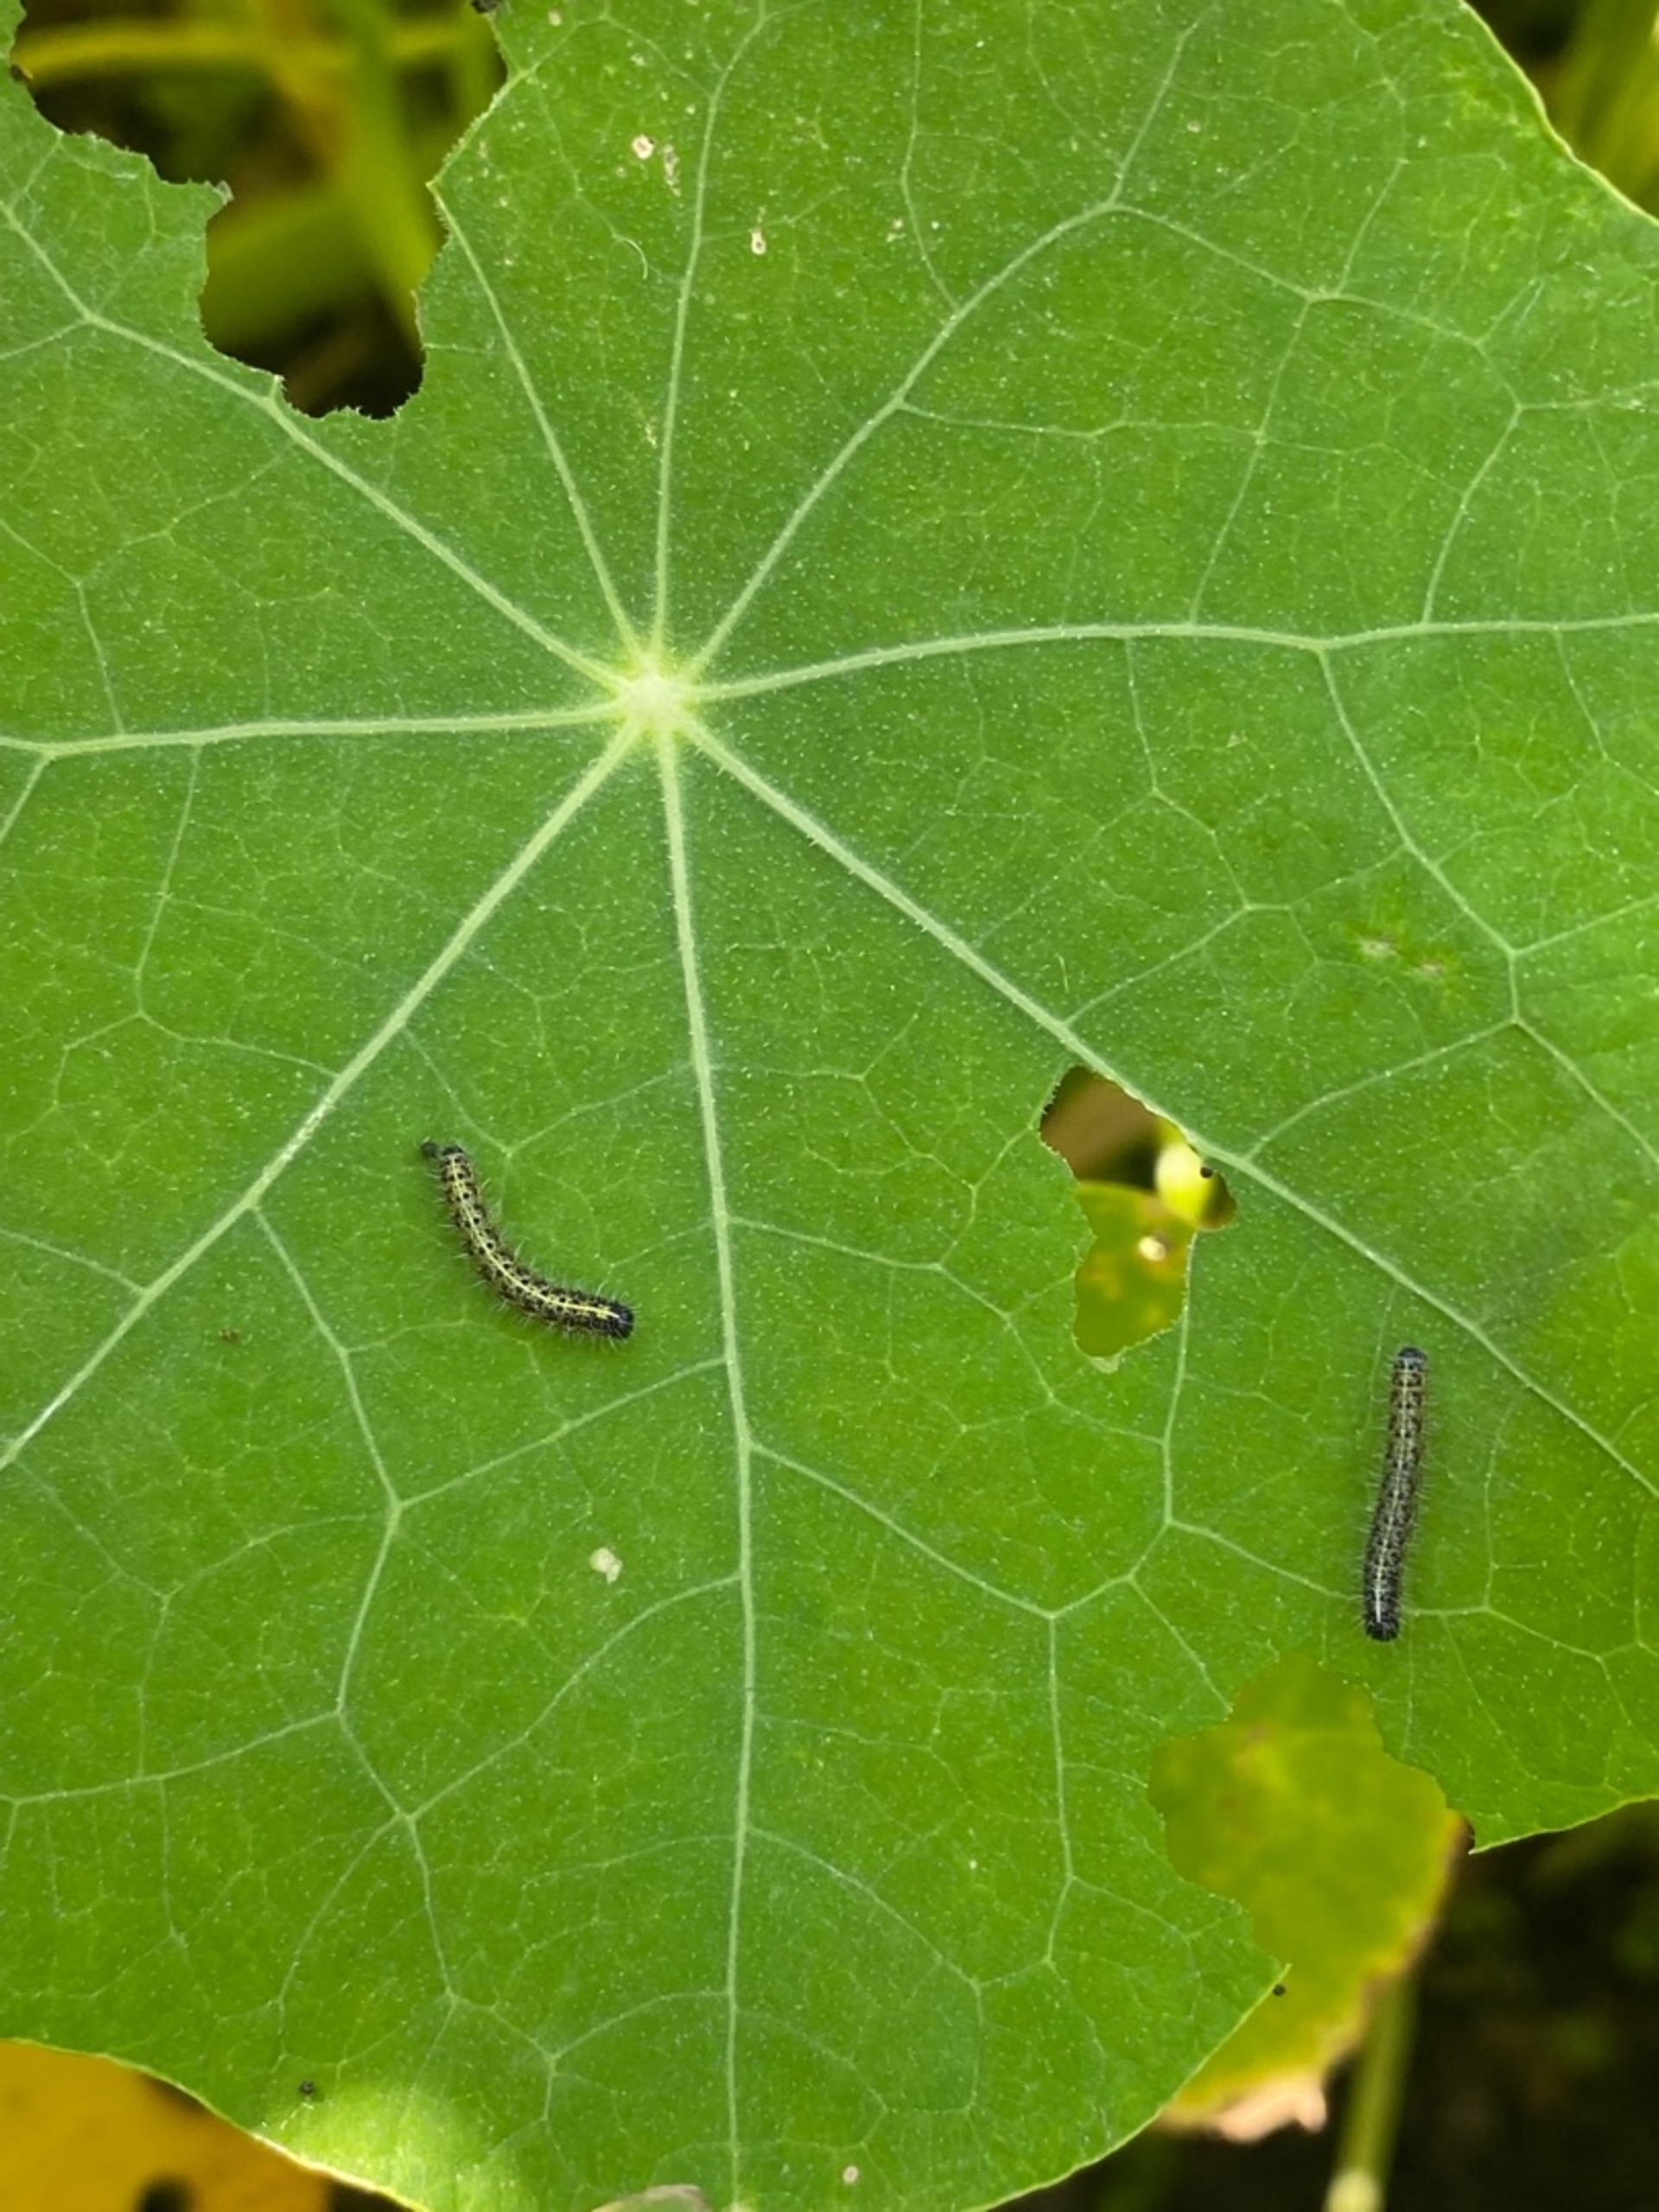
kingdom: Animalia
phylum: Arthropoda
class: Insecta
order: Lepidoptera
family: Pieridae
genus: Pieris
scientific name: Pieris brassicae
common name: Stor kålsommerfugl
